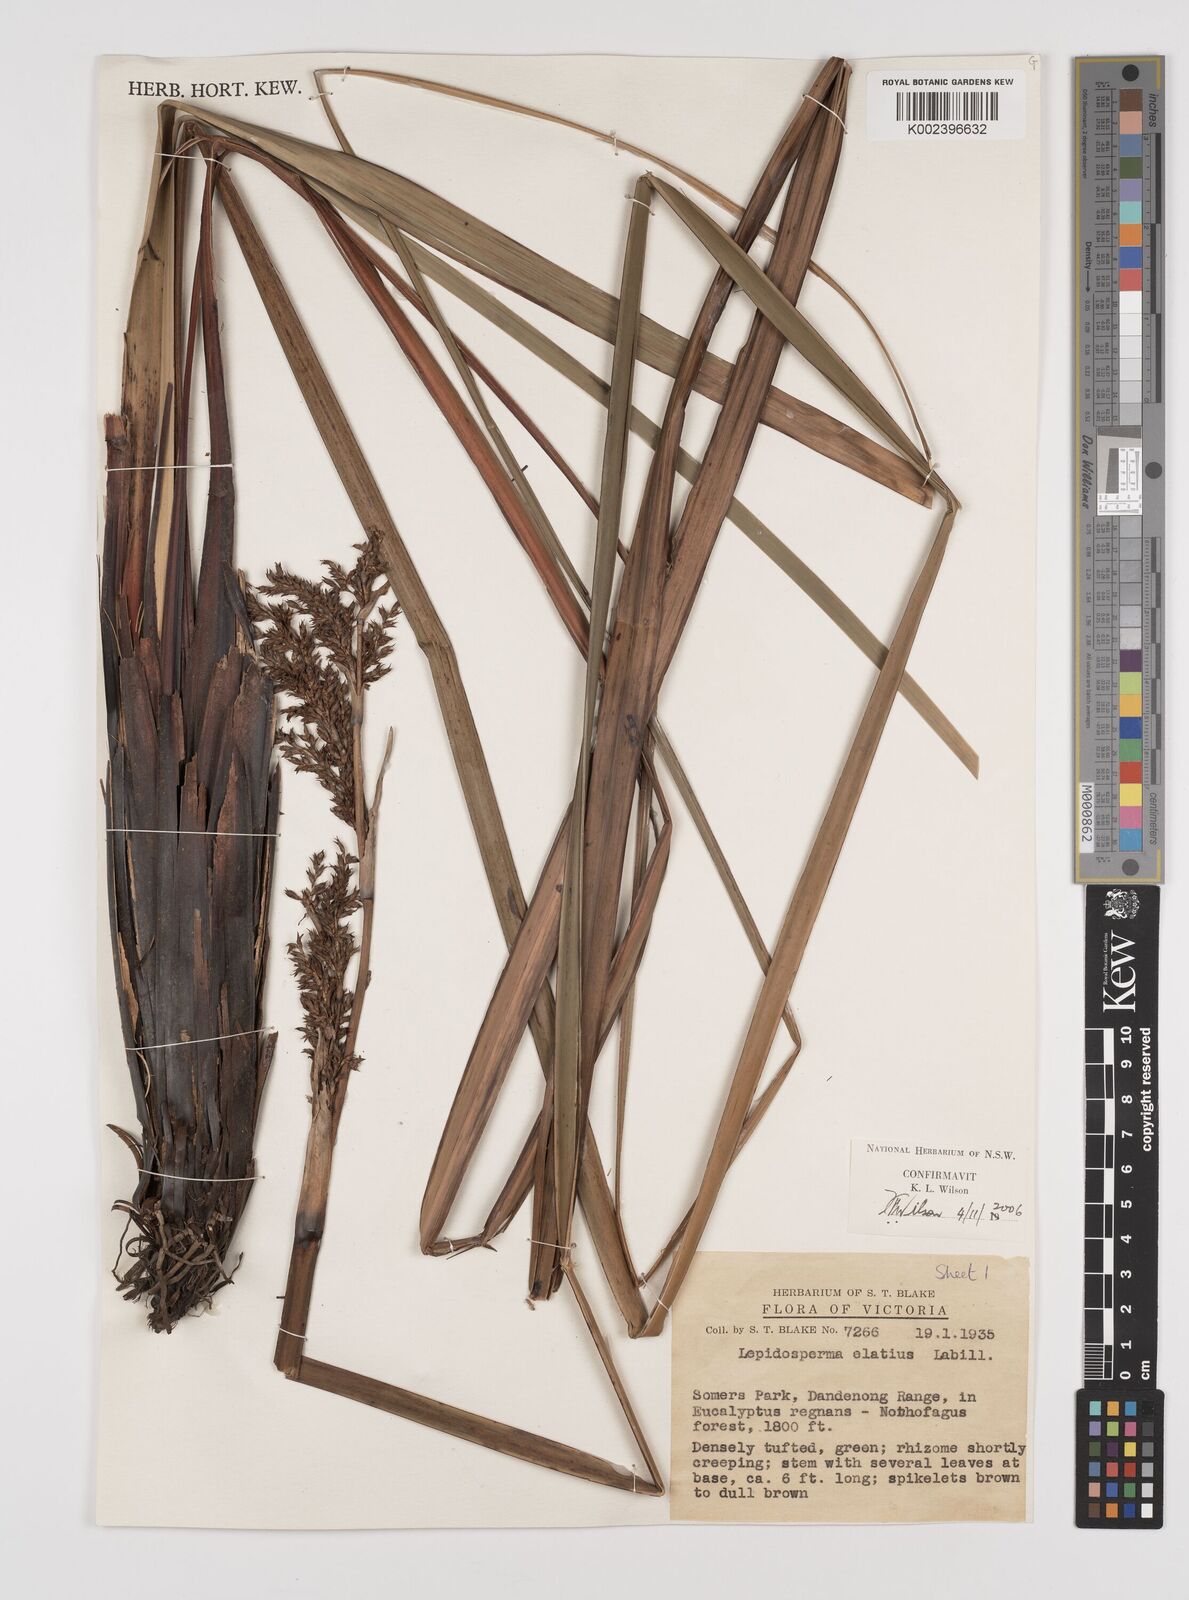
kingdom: Plantae
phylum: Tracheophyta
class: Liliopsida
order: Poales
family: Cyperaceae
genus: Lepidosperma
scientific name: Lepidosperma elatius
